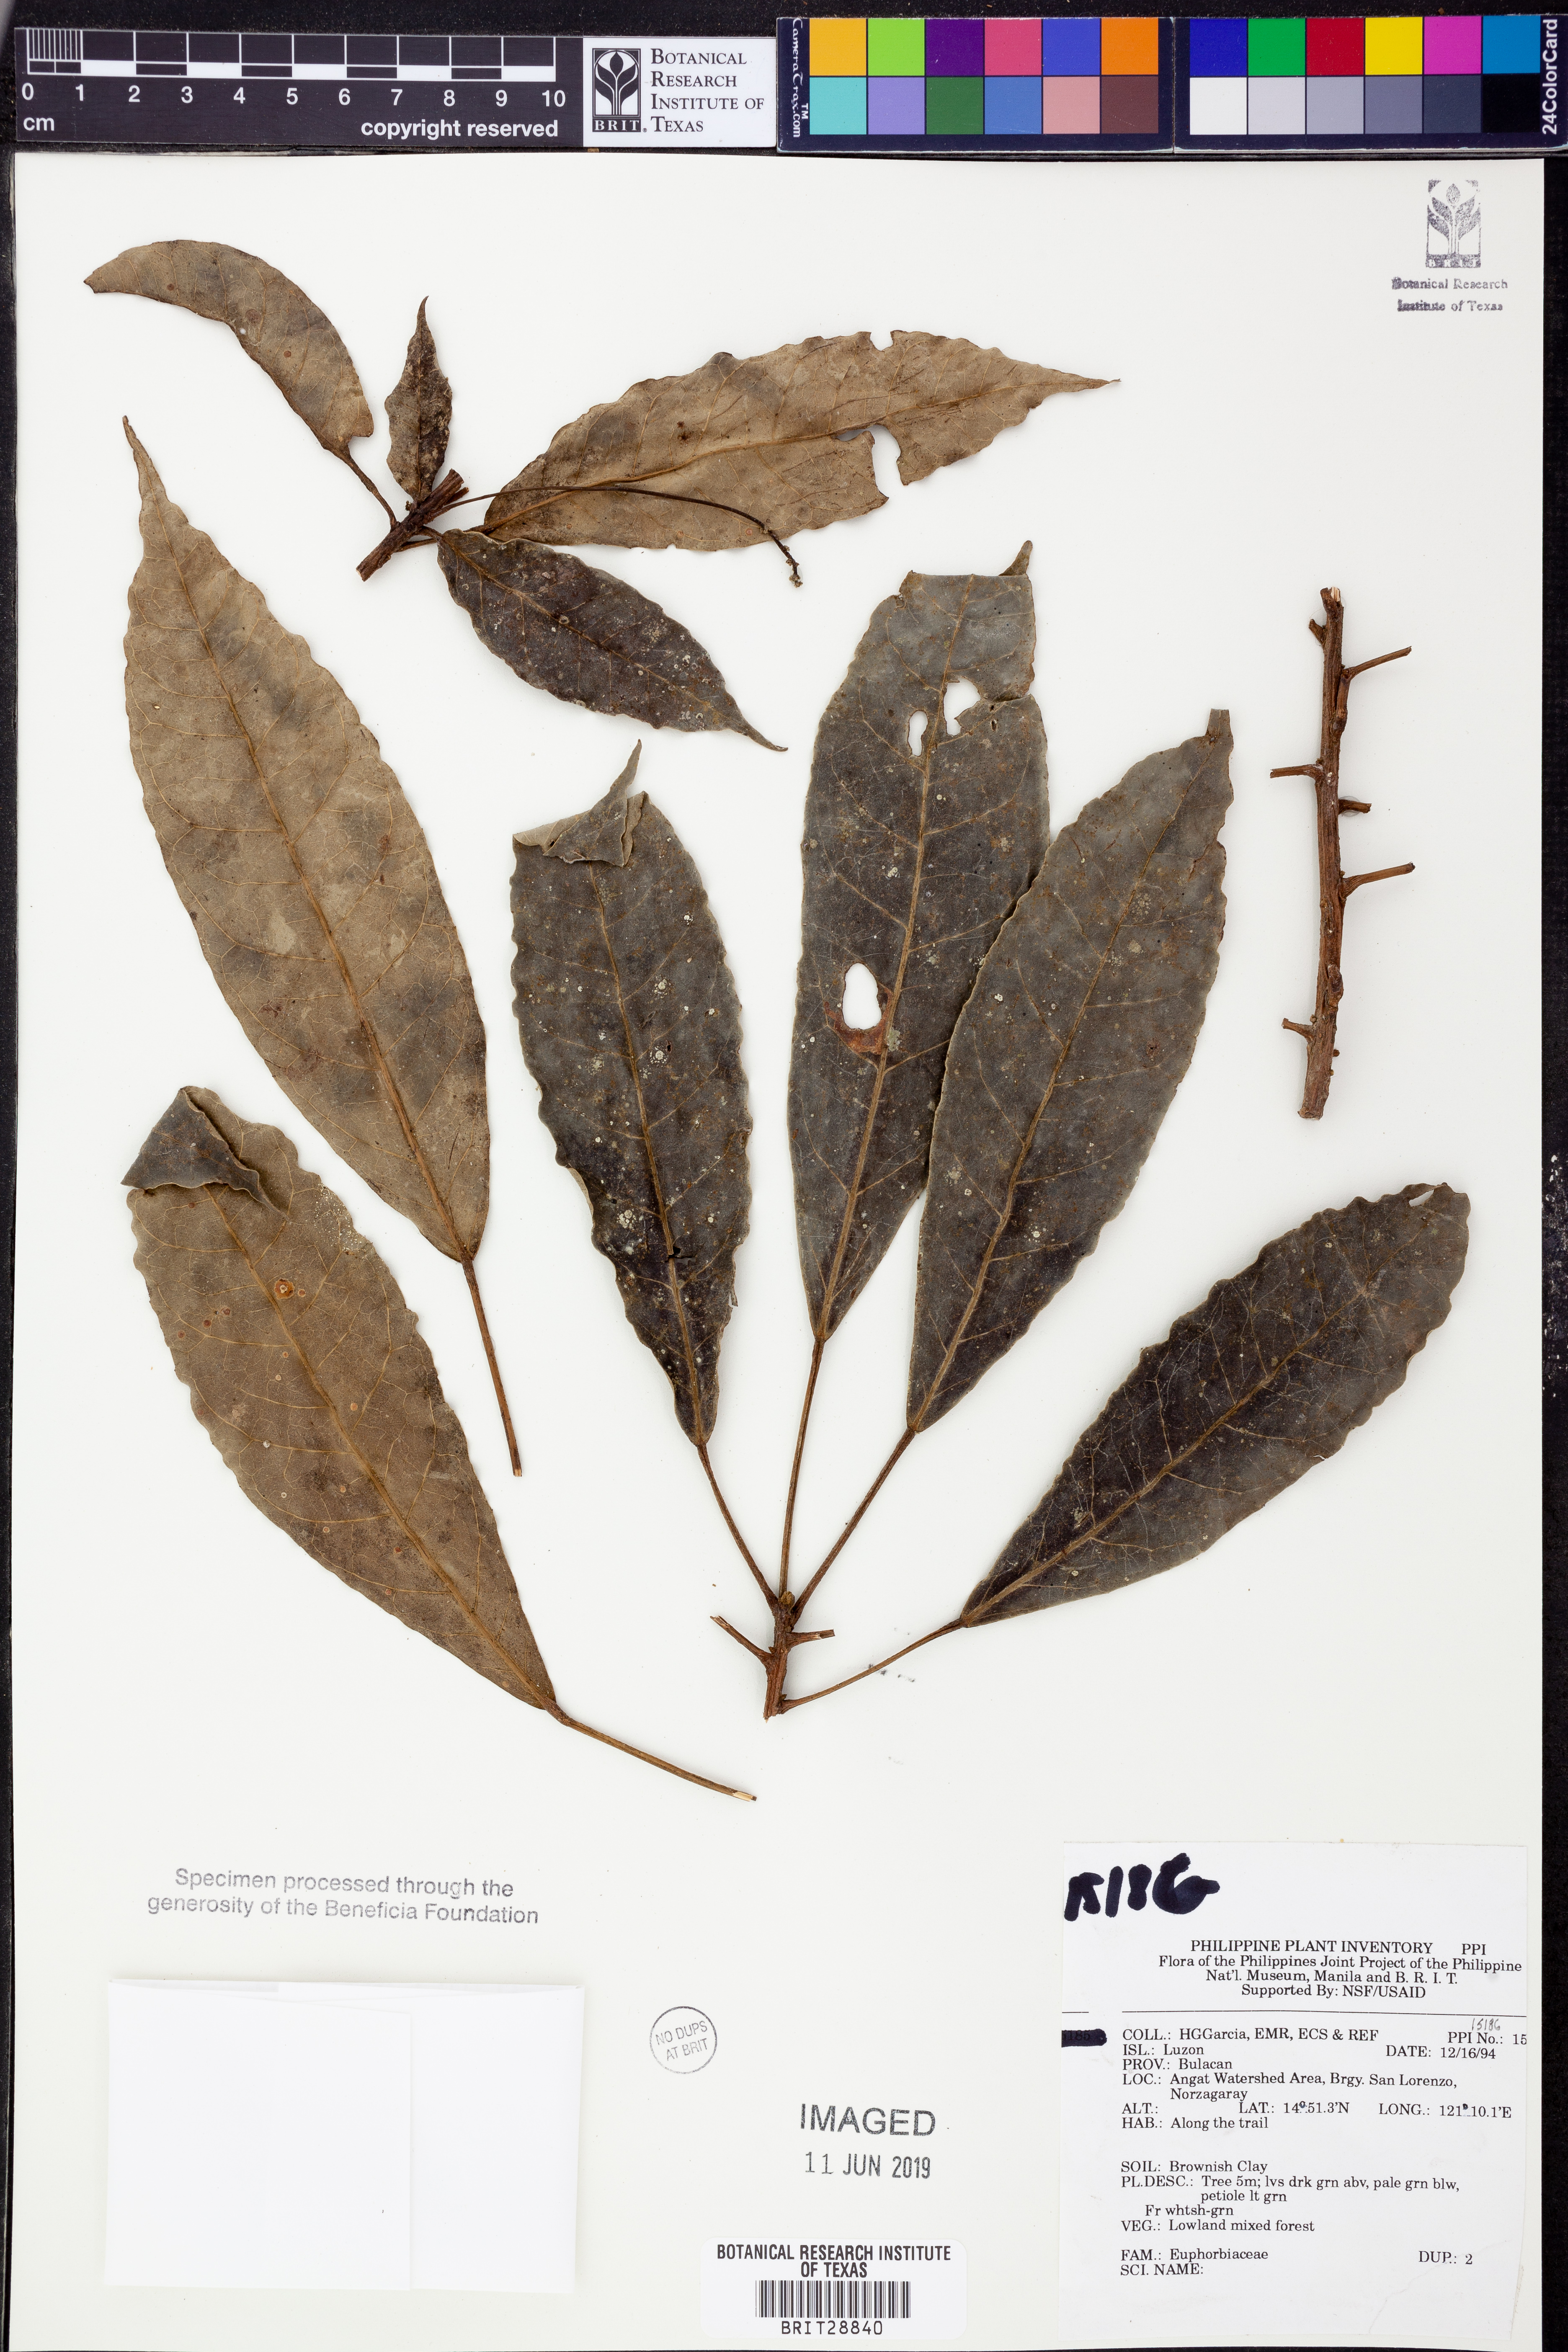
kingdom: Plantae
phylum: Tracheophyta
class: Magnoliopsida
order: Malpighiales
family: Euphorbiaceae
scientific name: Euphorbiaceae
